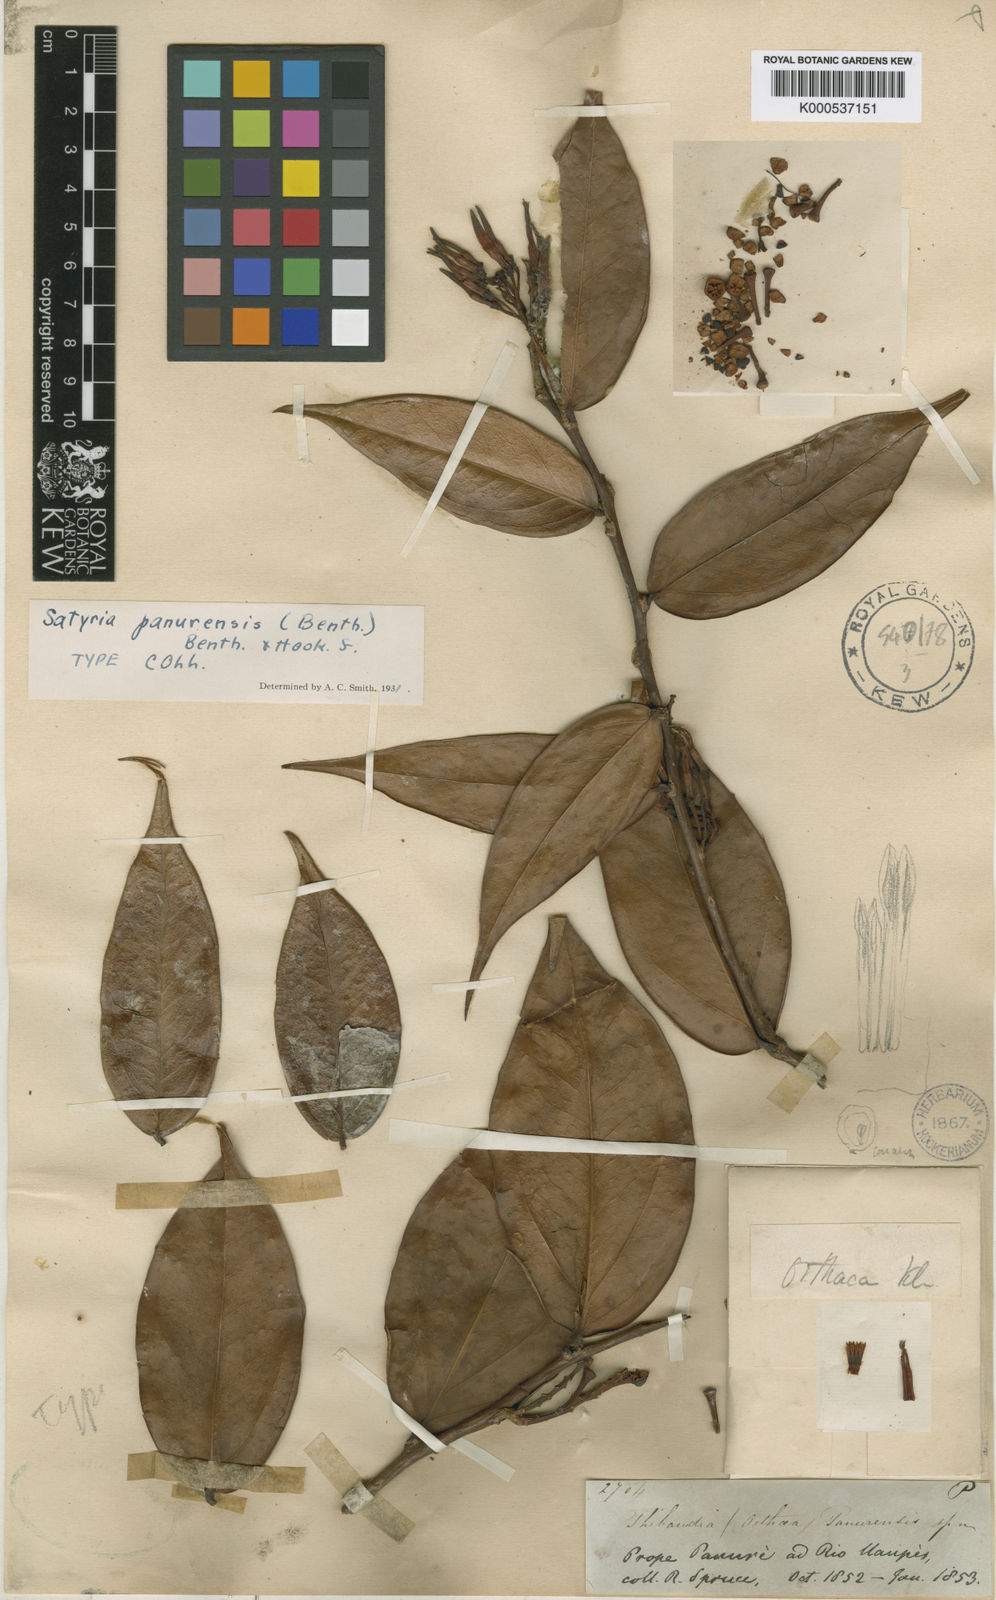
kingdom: Plantae
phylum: Tracheophyta
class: Magnoliopsida
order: Ericales
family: Ericaceae
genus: Satyria
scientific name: Satyria panurensis
